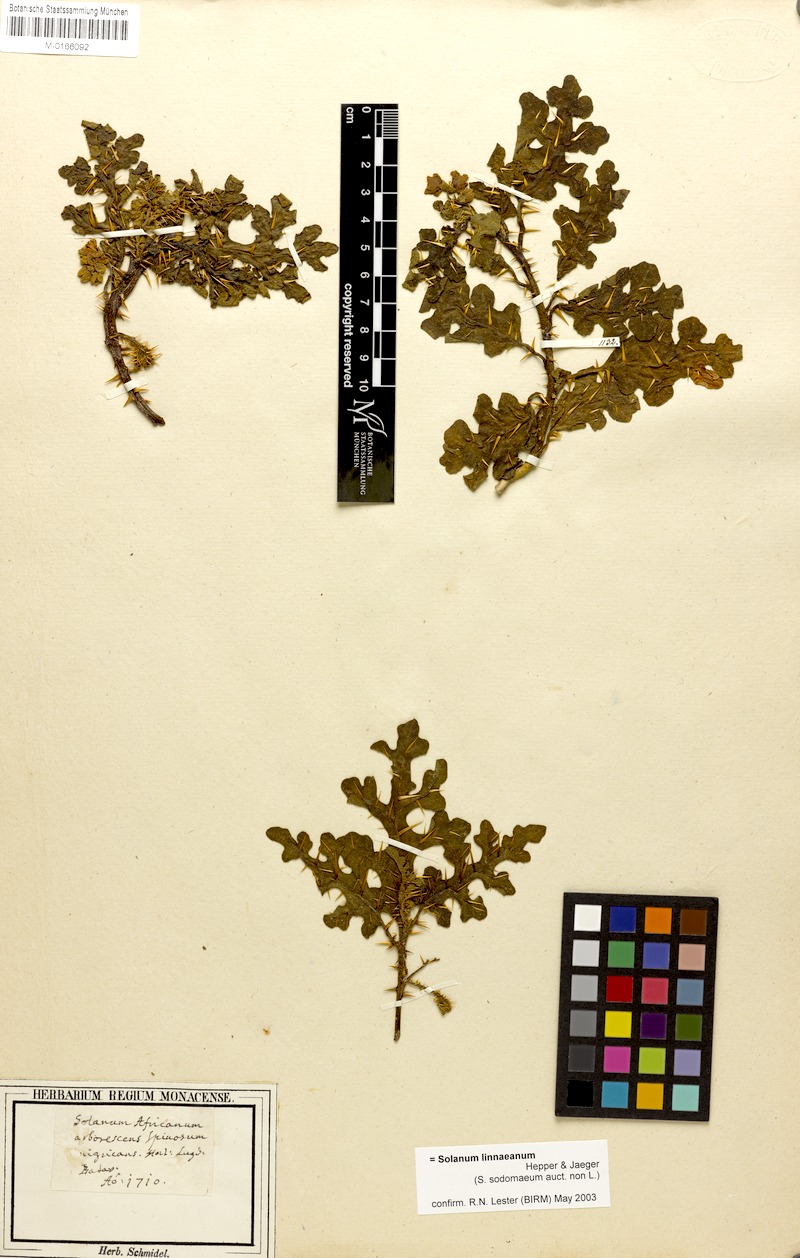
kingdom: Plantae
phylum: Tracheophyta
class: Magnoliopsida
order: Solanales
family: Solanaceae
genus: Solanum
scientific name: Solanum linnaeanum
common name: Nightshade
